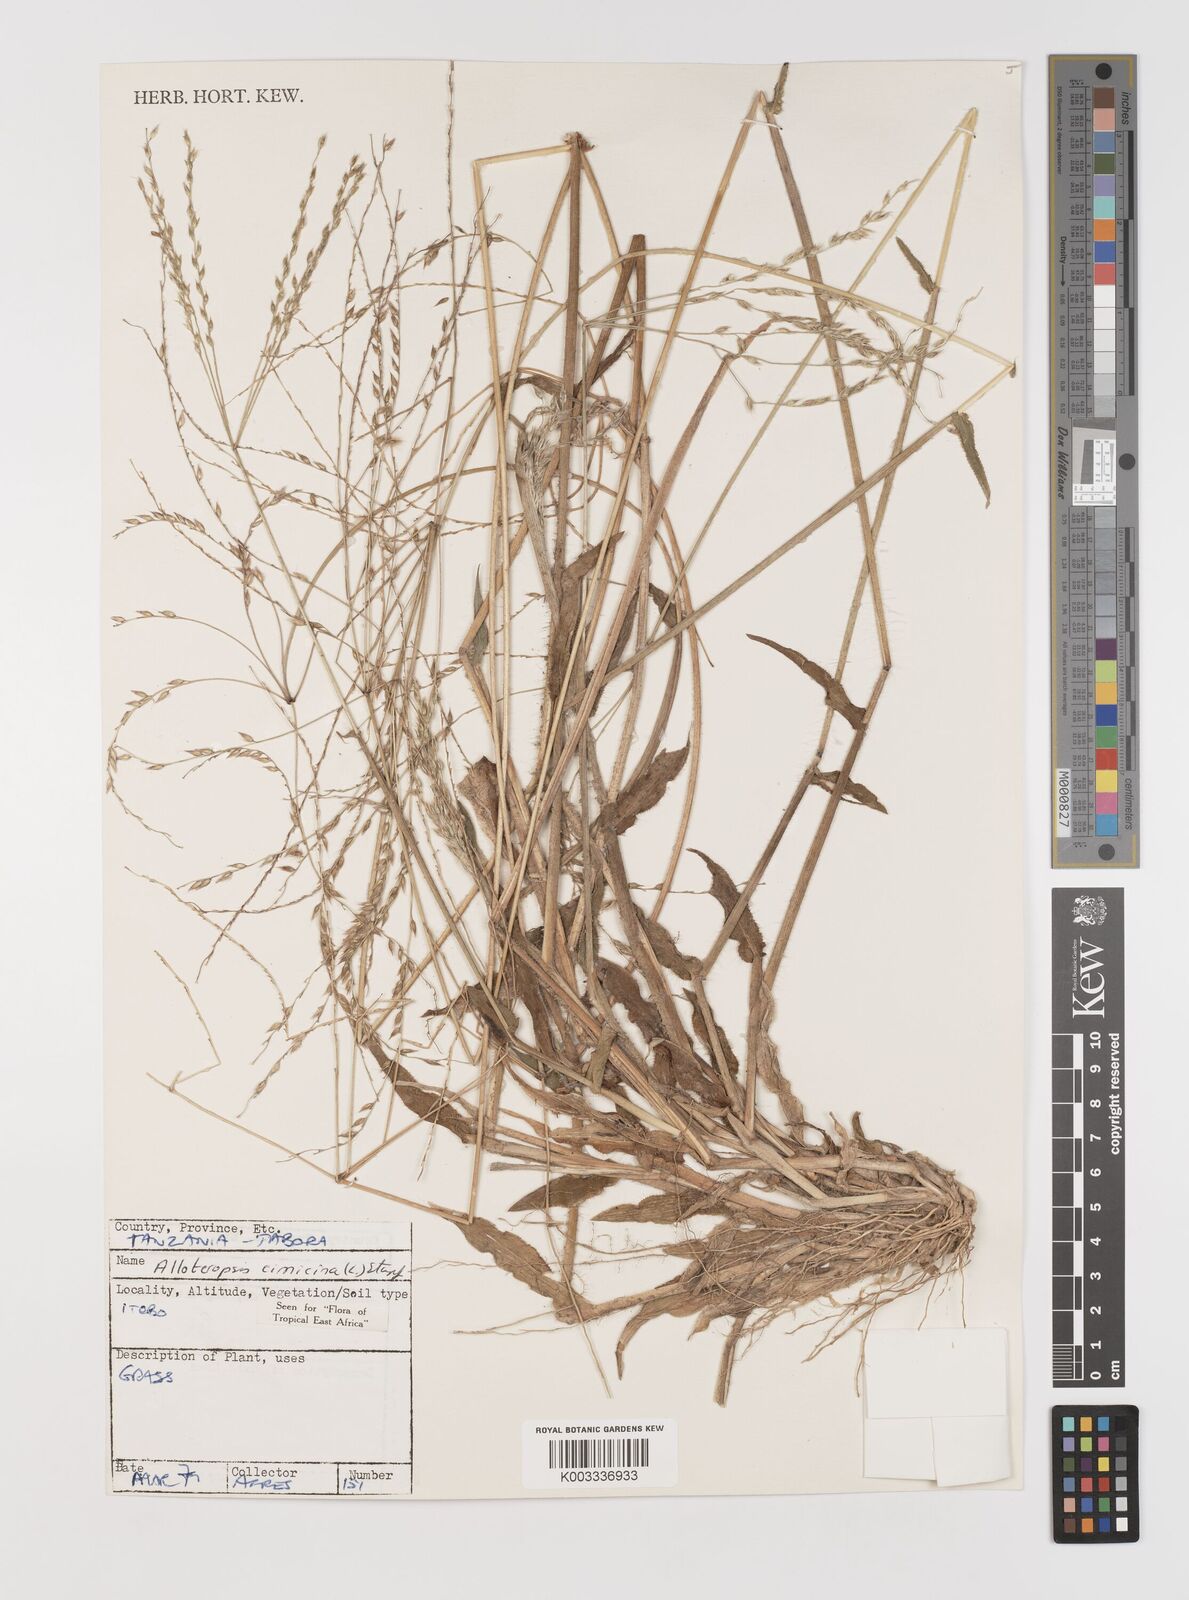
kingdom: Plantae
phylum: Tracheophyta
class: Liliopsida
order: Poales
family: Poaceae
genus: Alloteropsis
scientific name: Alloteropsis cimicina
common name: Summergrass
